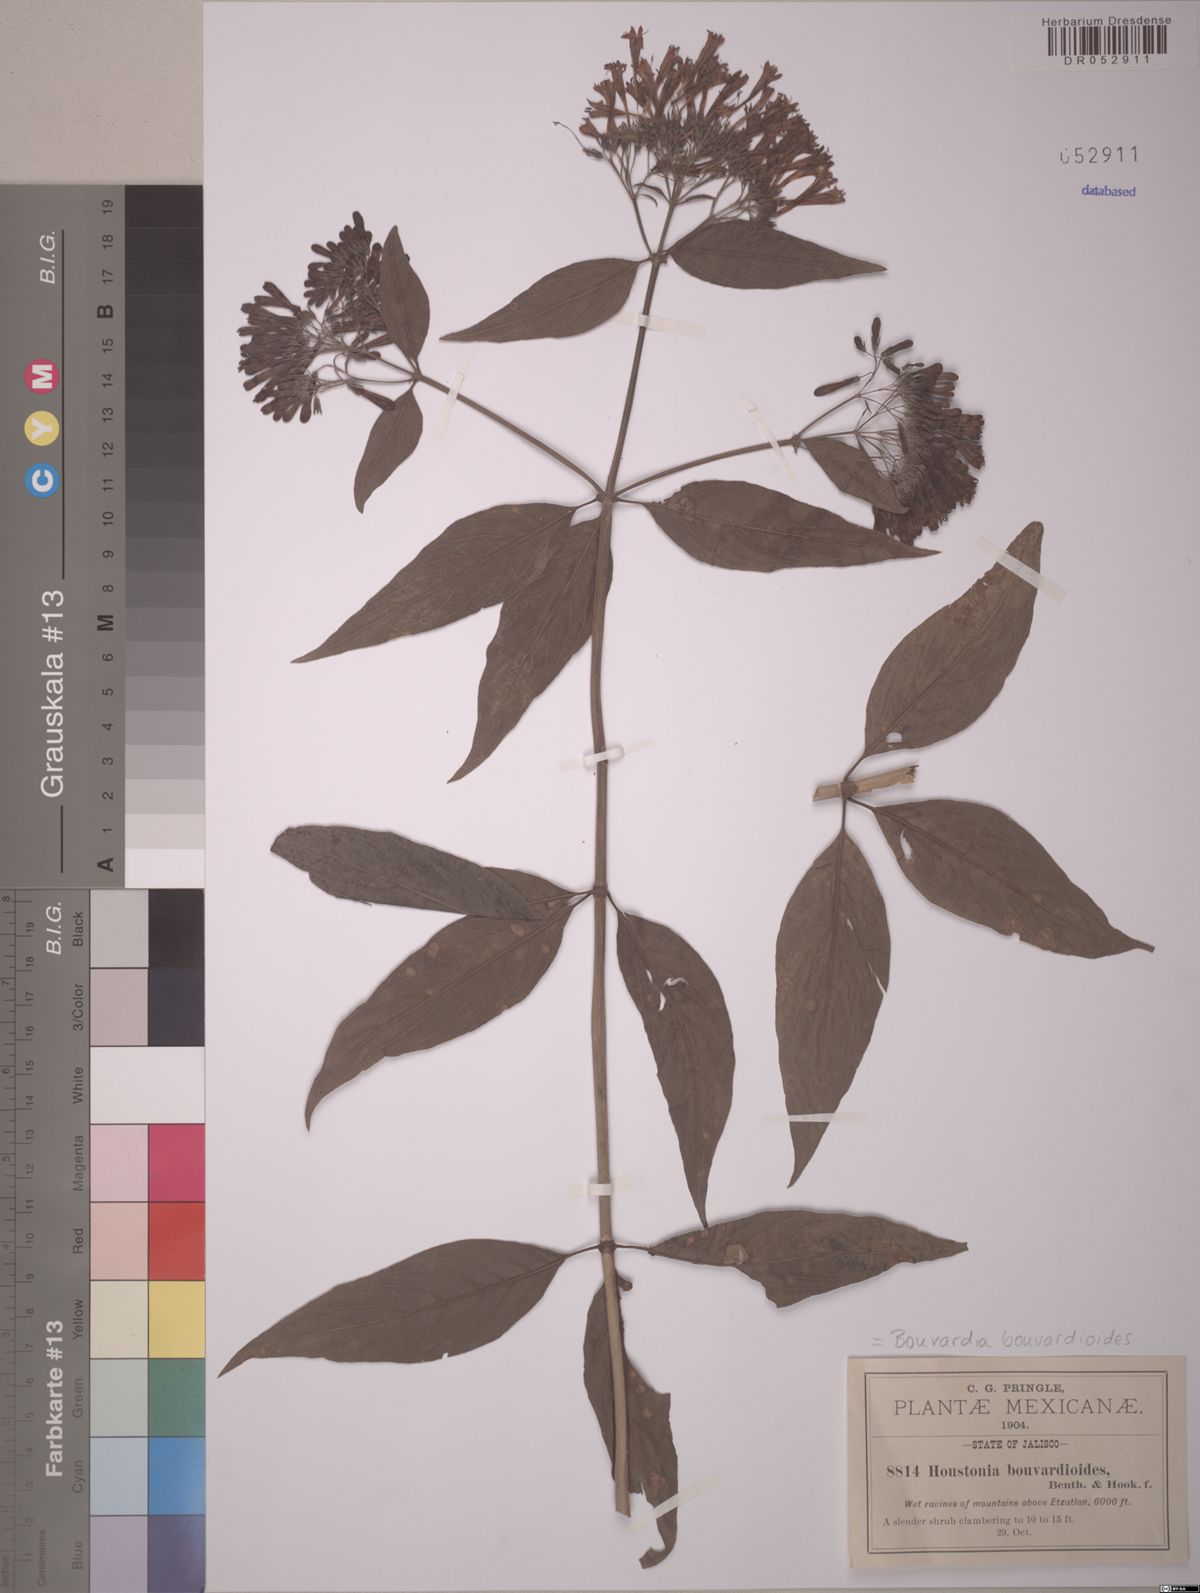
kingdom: Plantae
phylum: Tracheophyta
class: Magnoliopsida
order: Gentianales
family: Rubiaceae
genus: Bouvardia
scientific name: Bouvardia bouvardioides
